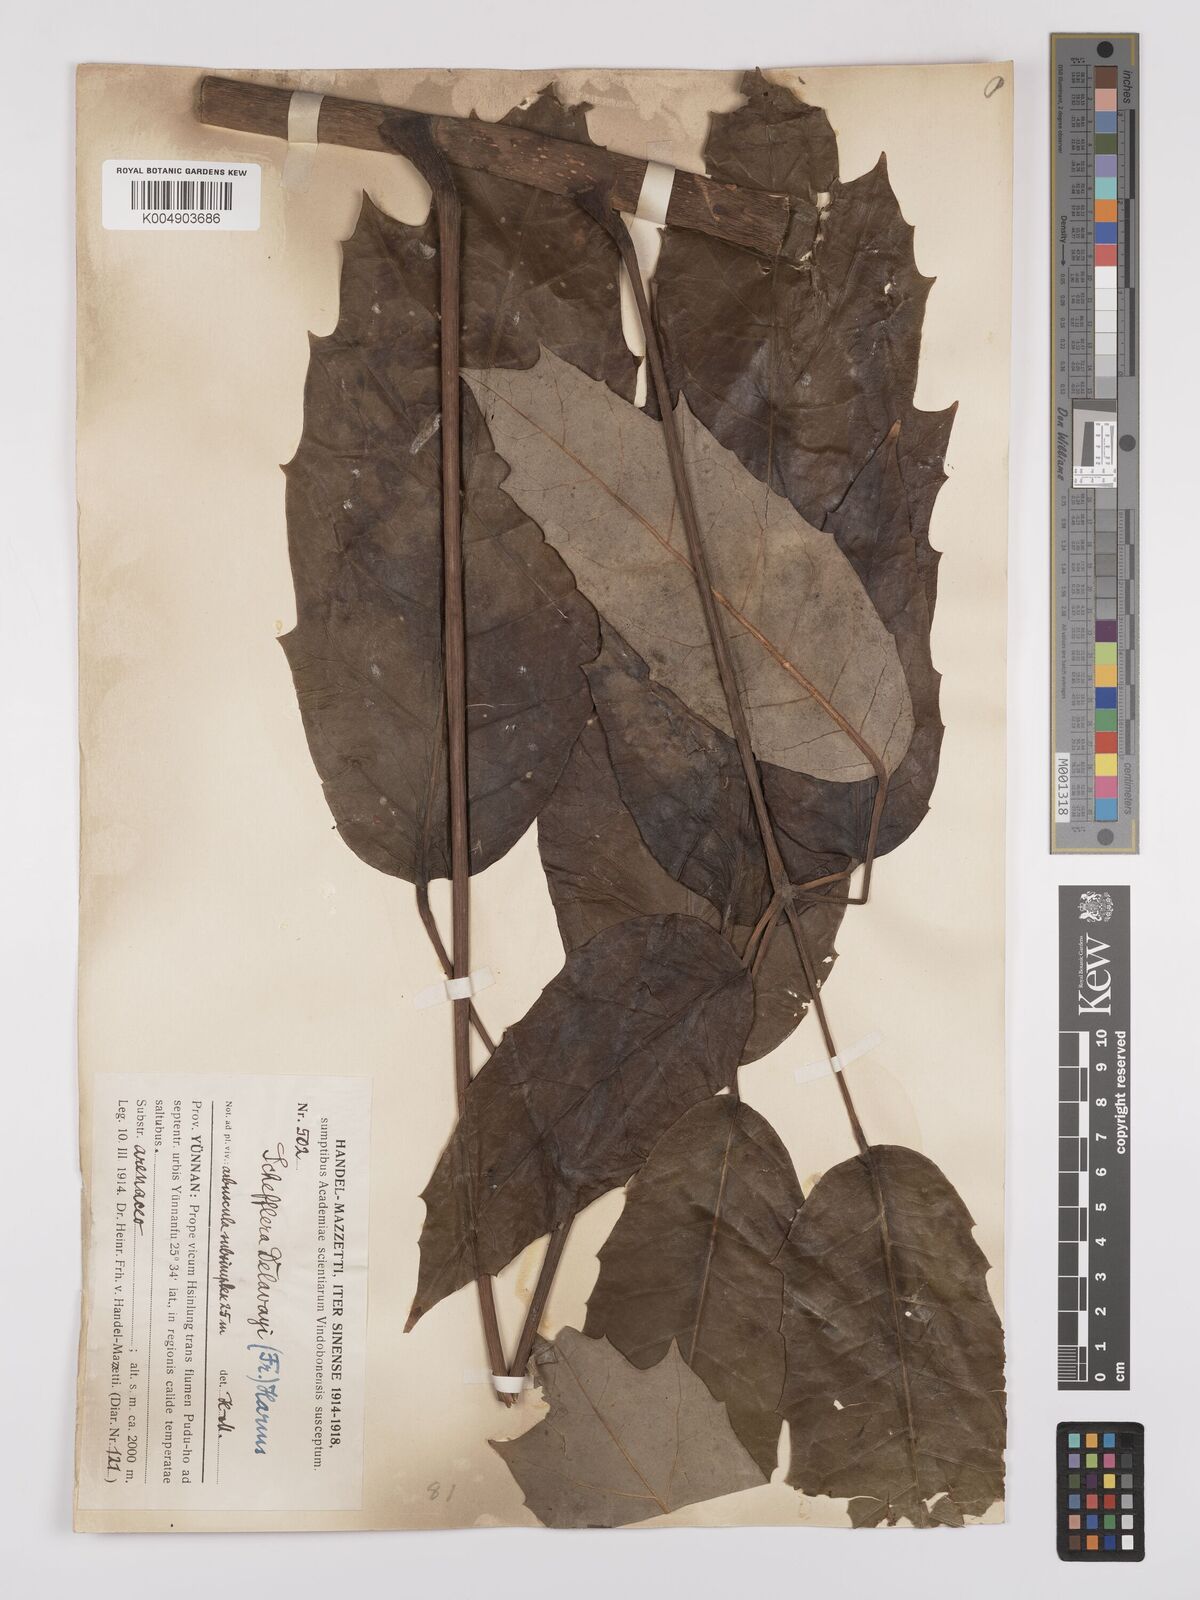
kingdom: Plantae
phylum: Tracheophyta
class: Magnoliopsida
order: Apiales
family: Araliaceae
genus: Heptapleurum
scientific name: Heptapleurum delavayi
